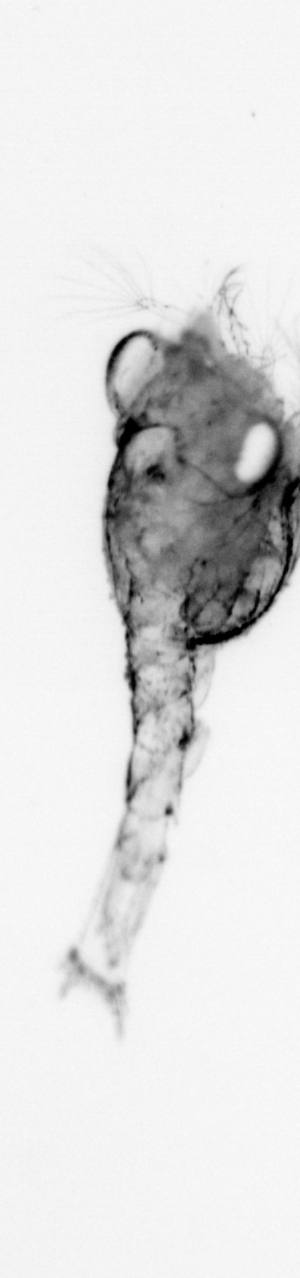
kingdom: Animalia
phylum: Arthropoda
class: Malacostraca
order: Decapoda
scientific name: Decapoda
